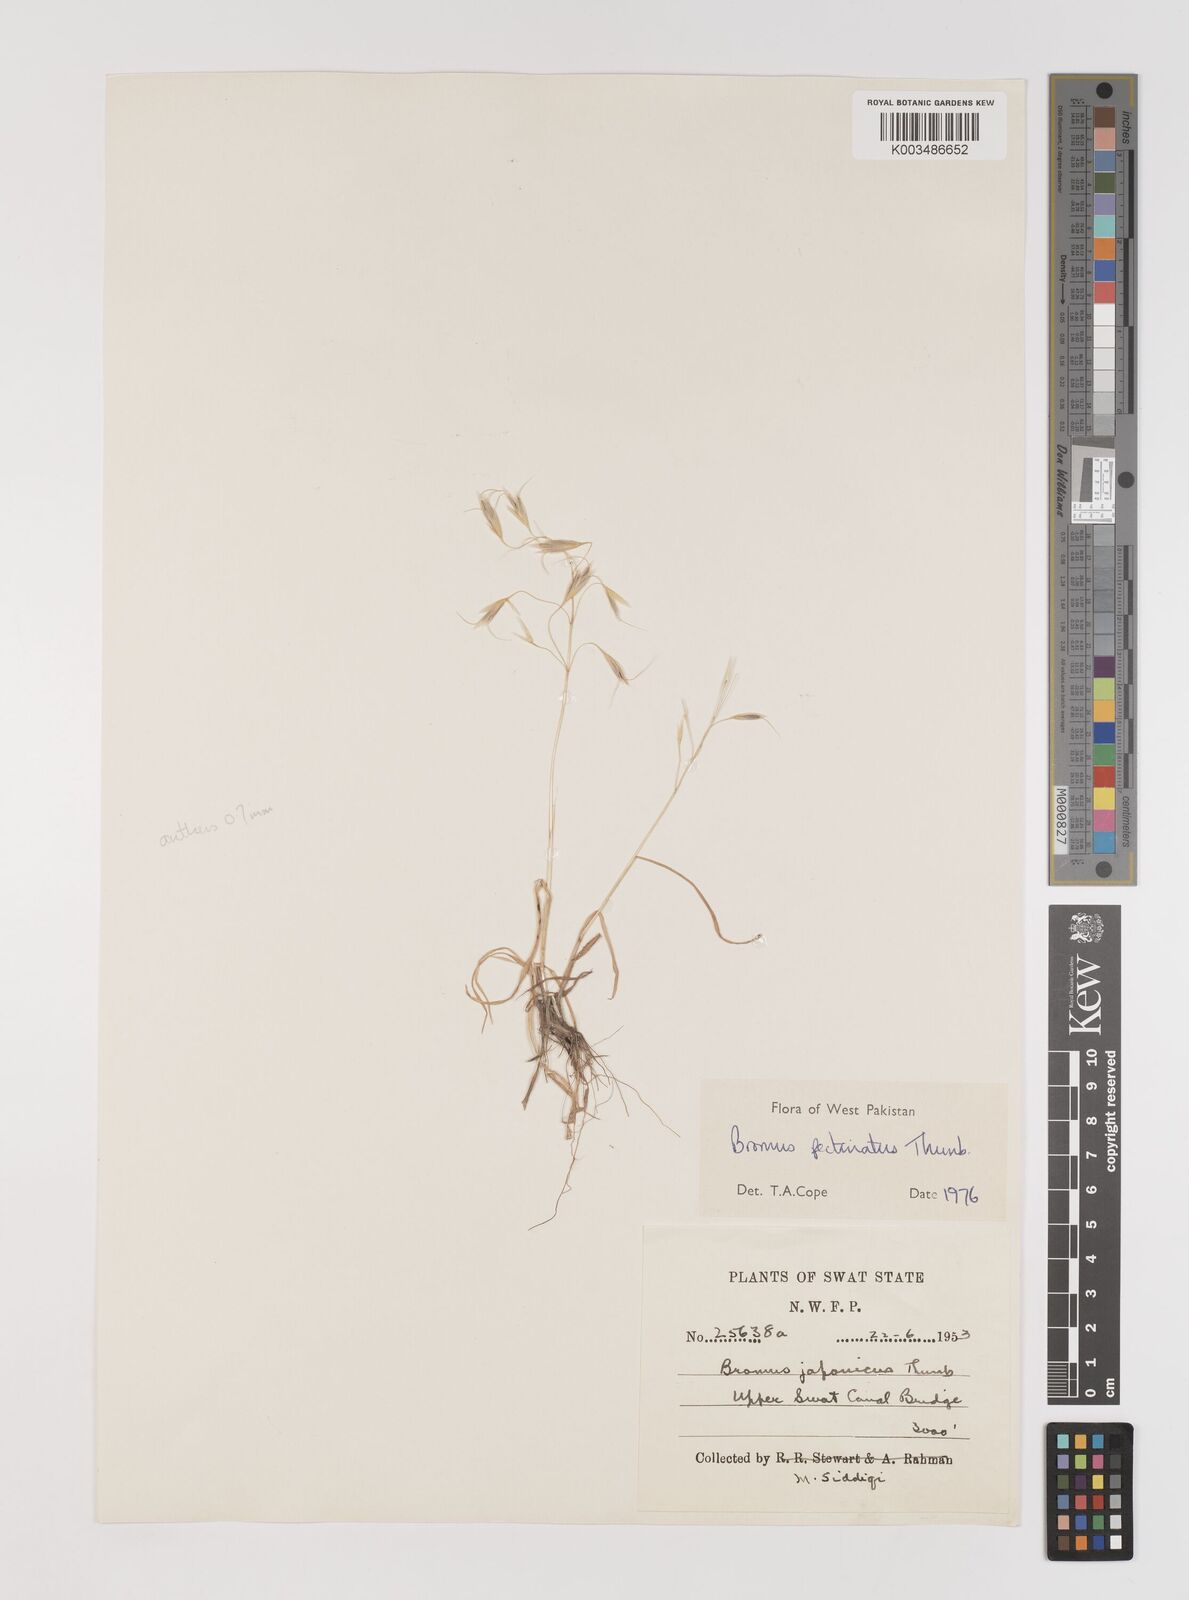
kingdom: Plantae
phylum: Tracheophyta
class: Liliopsida
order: Poales
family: Poaceae
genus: Bromus
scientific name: Bromus pectinatus
